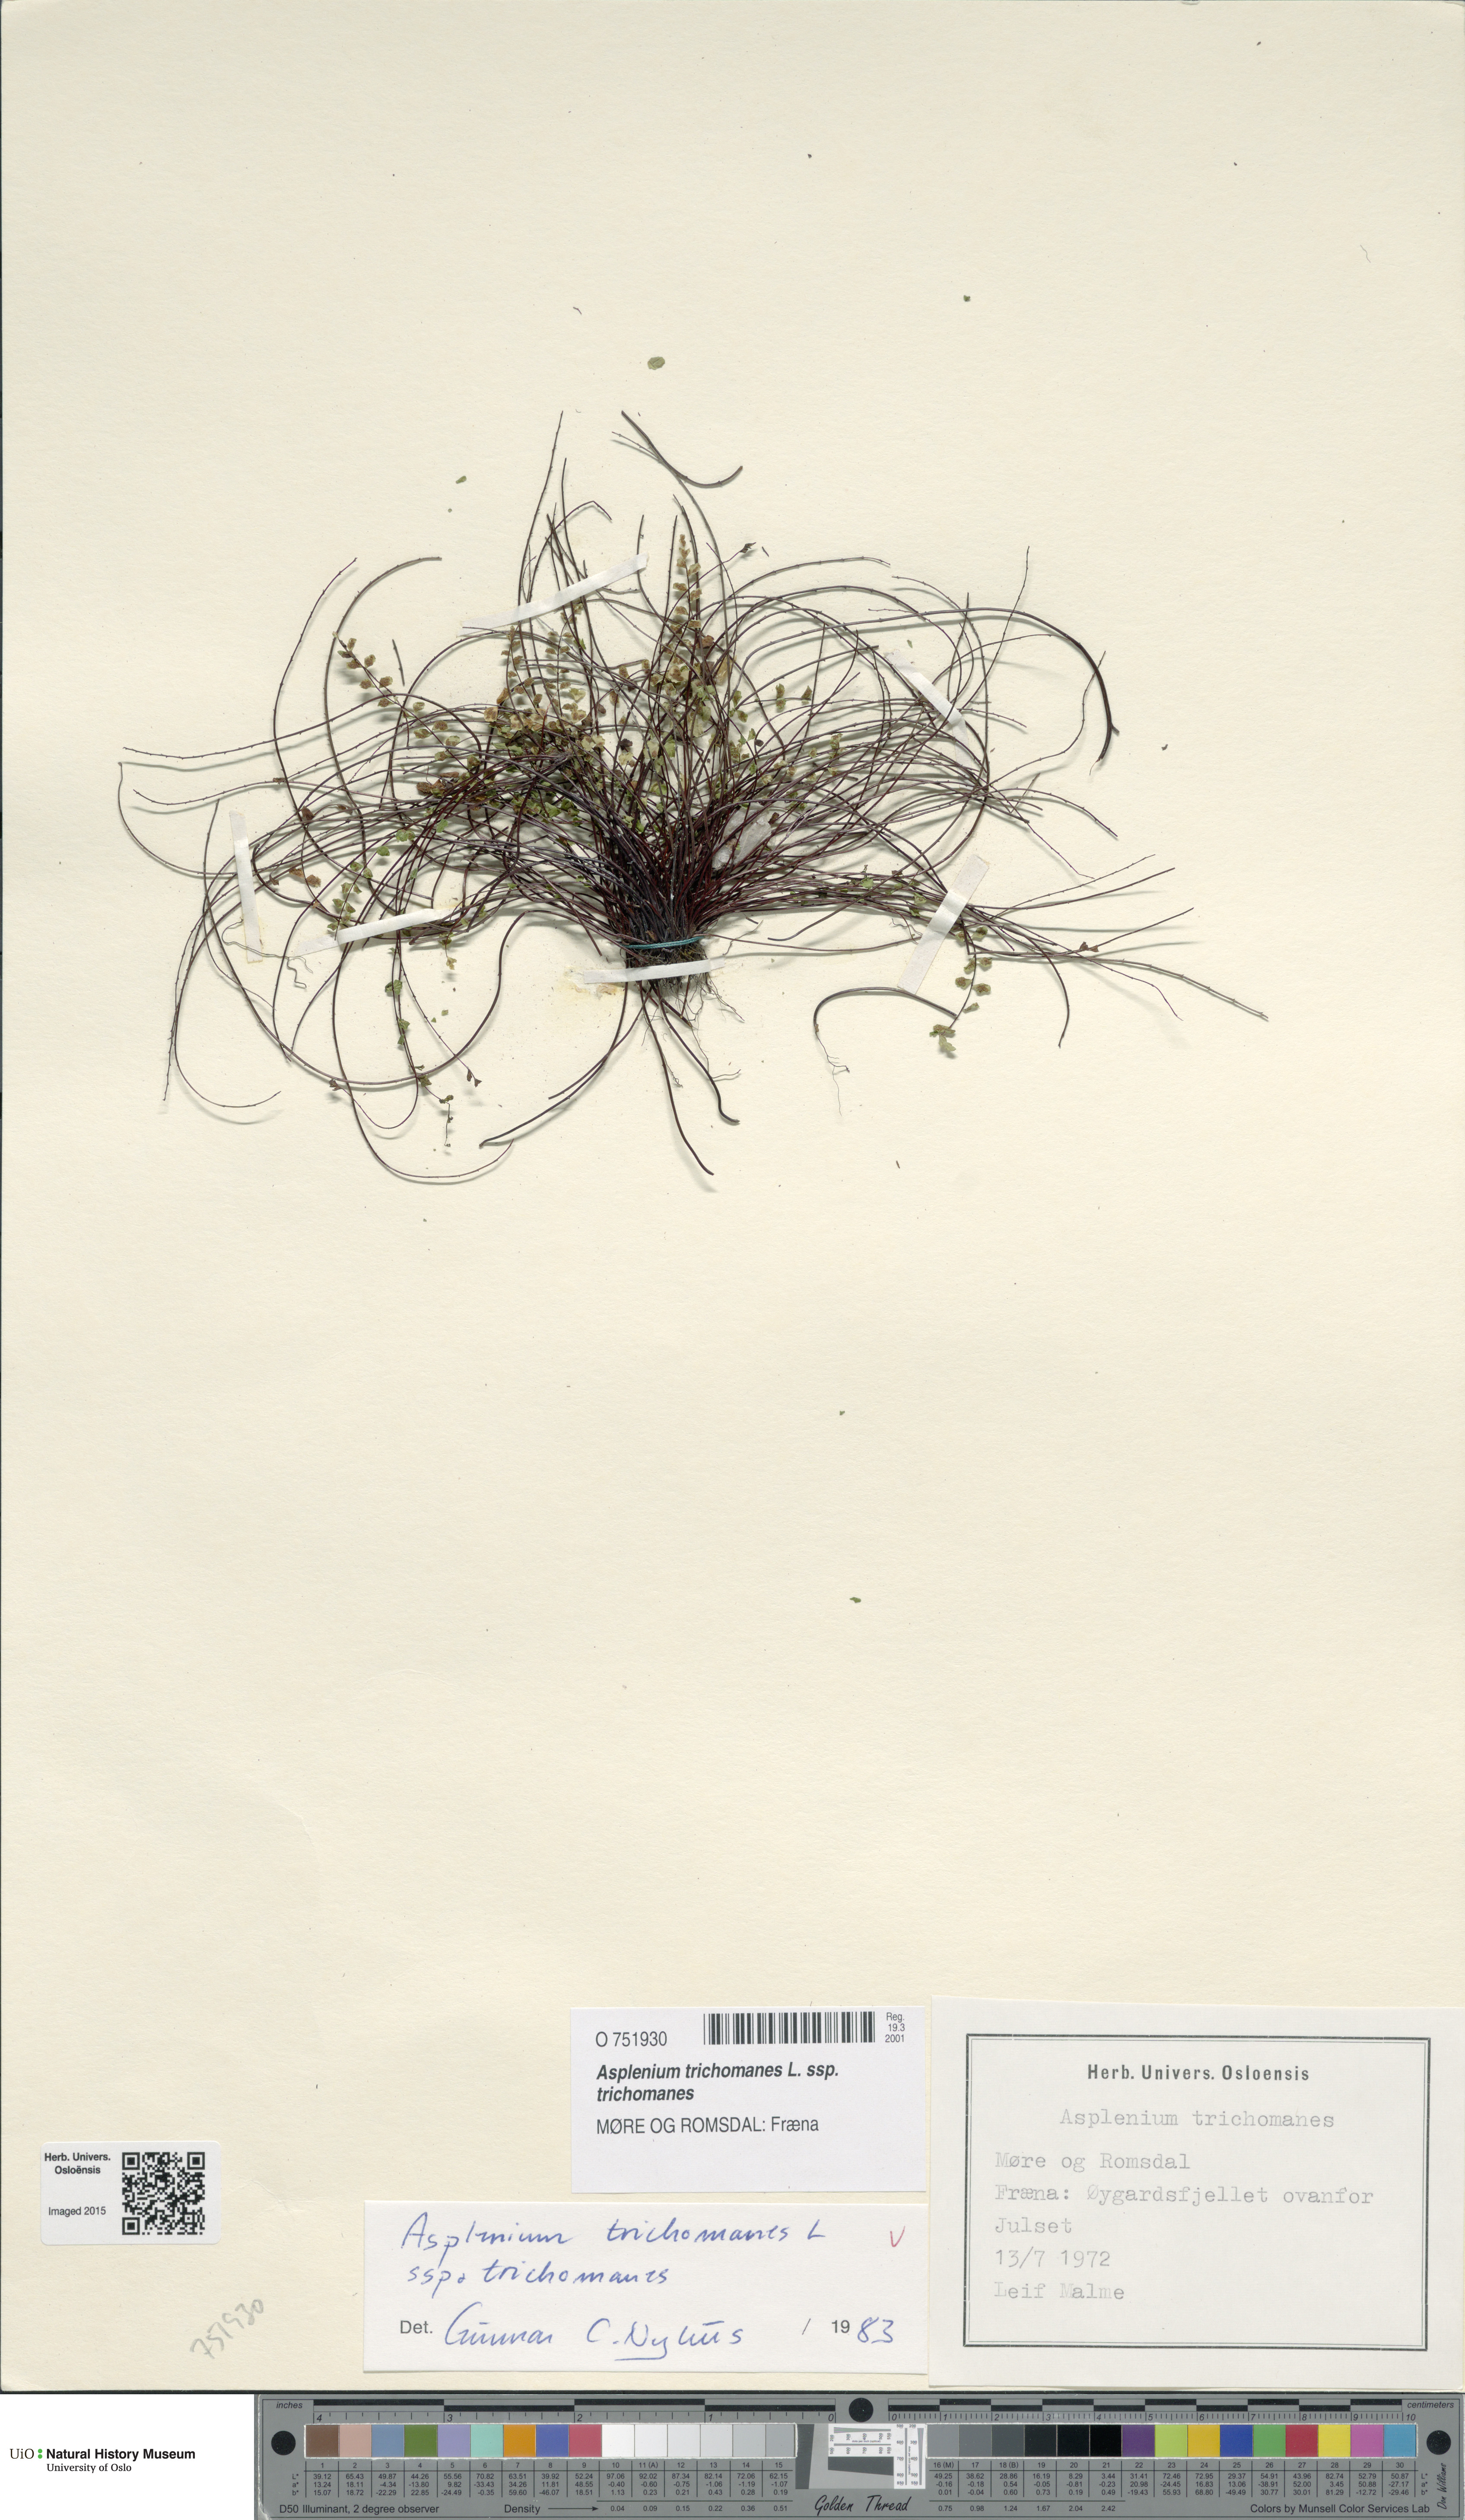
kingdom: Plantae
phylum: Tracheophyta
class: Polypodiopsida
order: Polypodiales
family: Aspleniaceae
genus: Asplenium
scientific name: Asplenium trichomanes
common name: Maidenhair spleenwort
